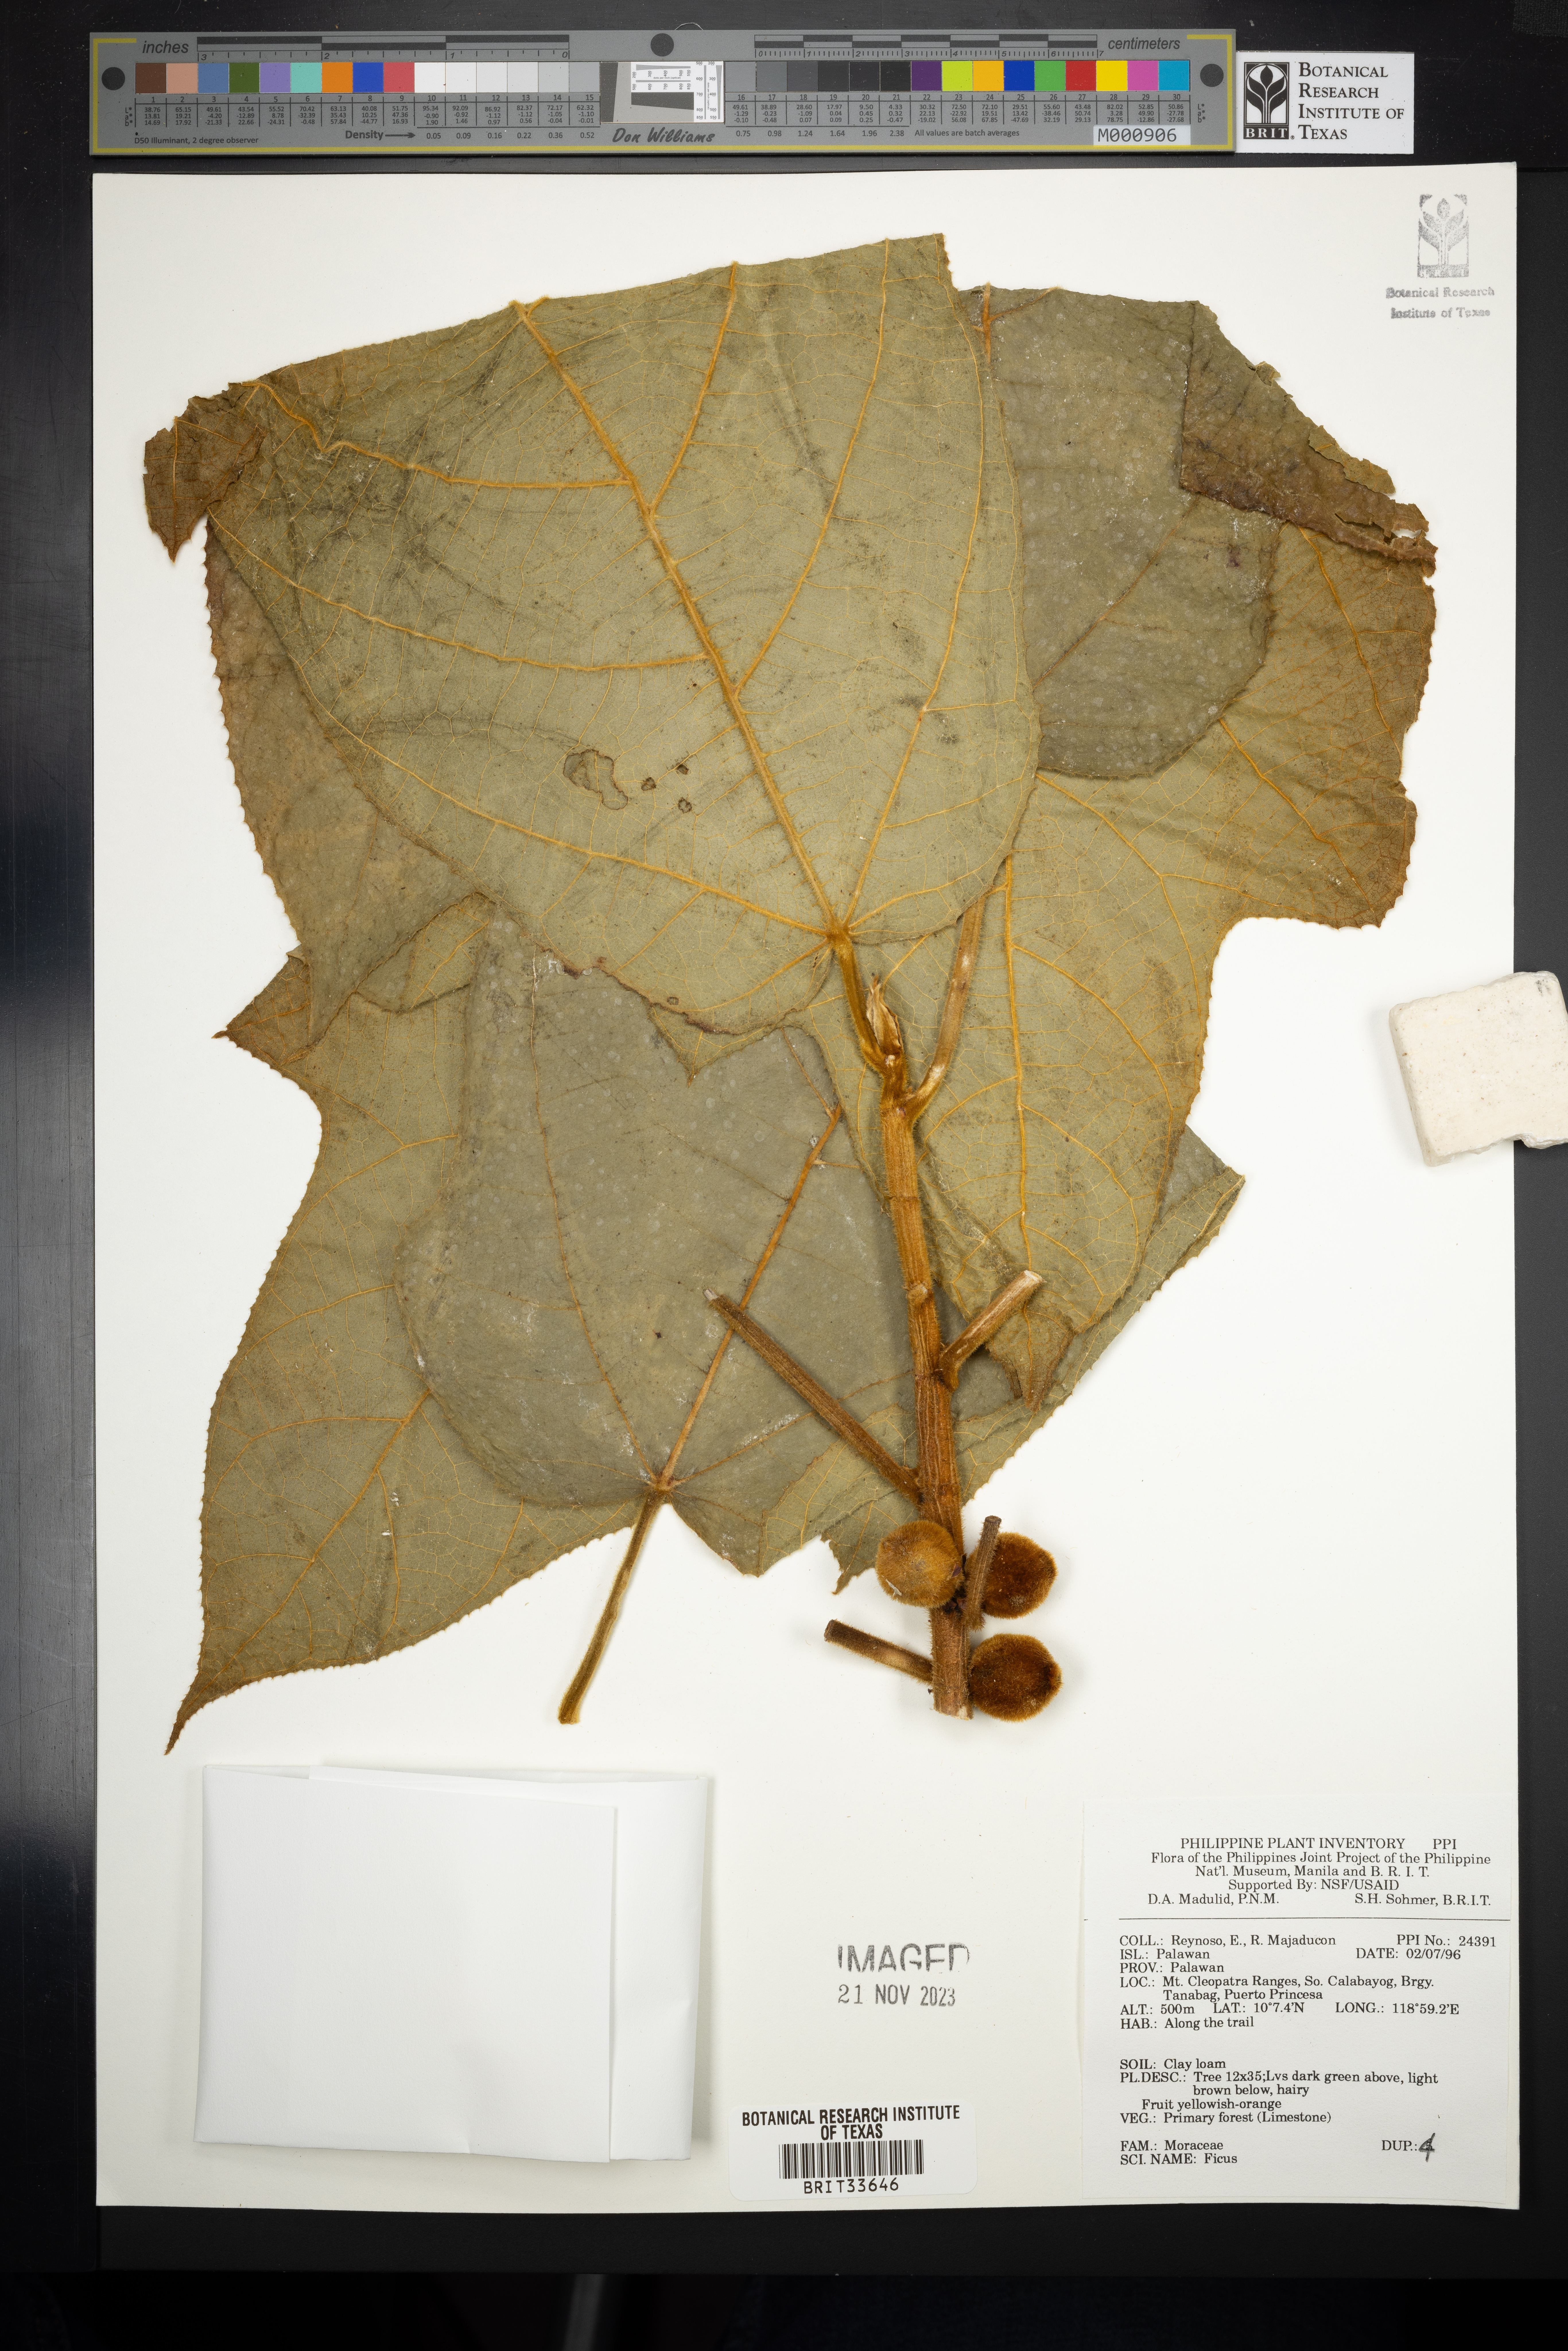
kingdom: Plantae
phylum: Tracheophyta
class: Magnoliopsida
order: Rosales
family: Moraceae
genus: Ficus
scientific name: Ficus
